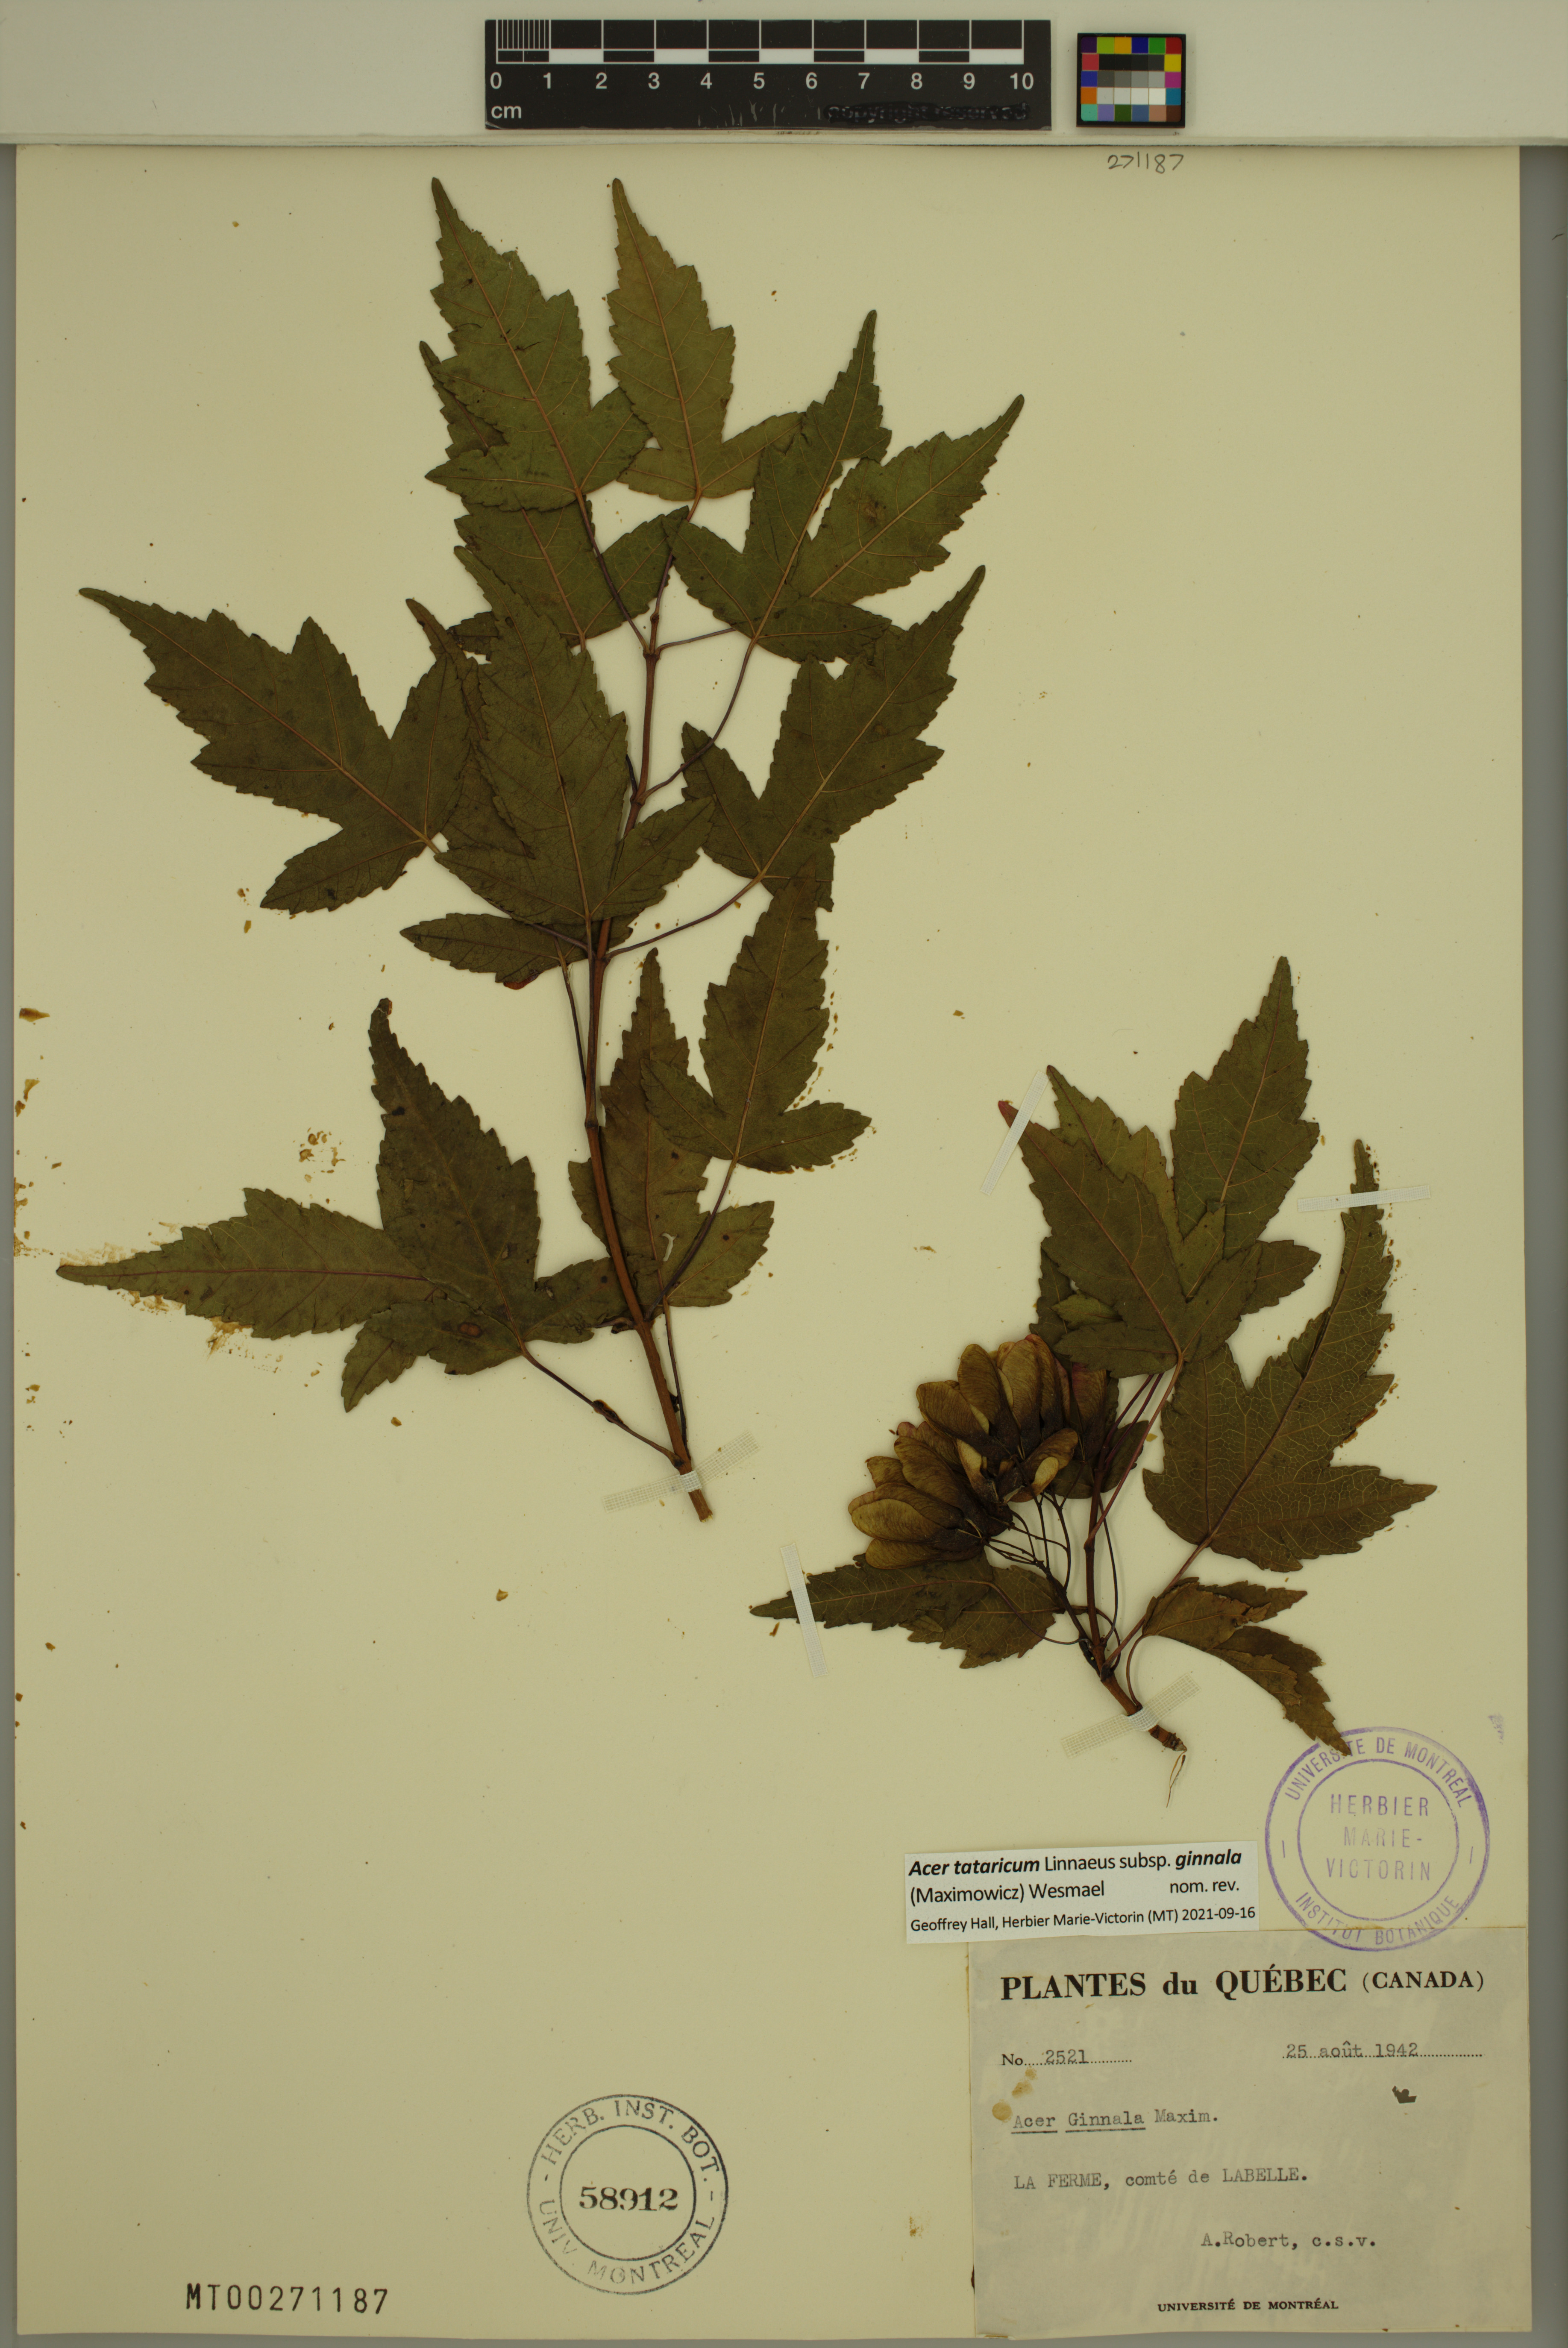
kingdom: Plantae
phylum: Tracheophyta
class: Magnoliopsida
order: Sapindales
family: Sapindaceae
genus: Acer
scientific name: Acer tataricum
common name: Tartar maple
